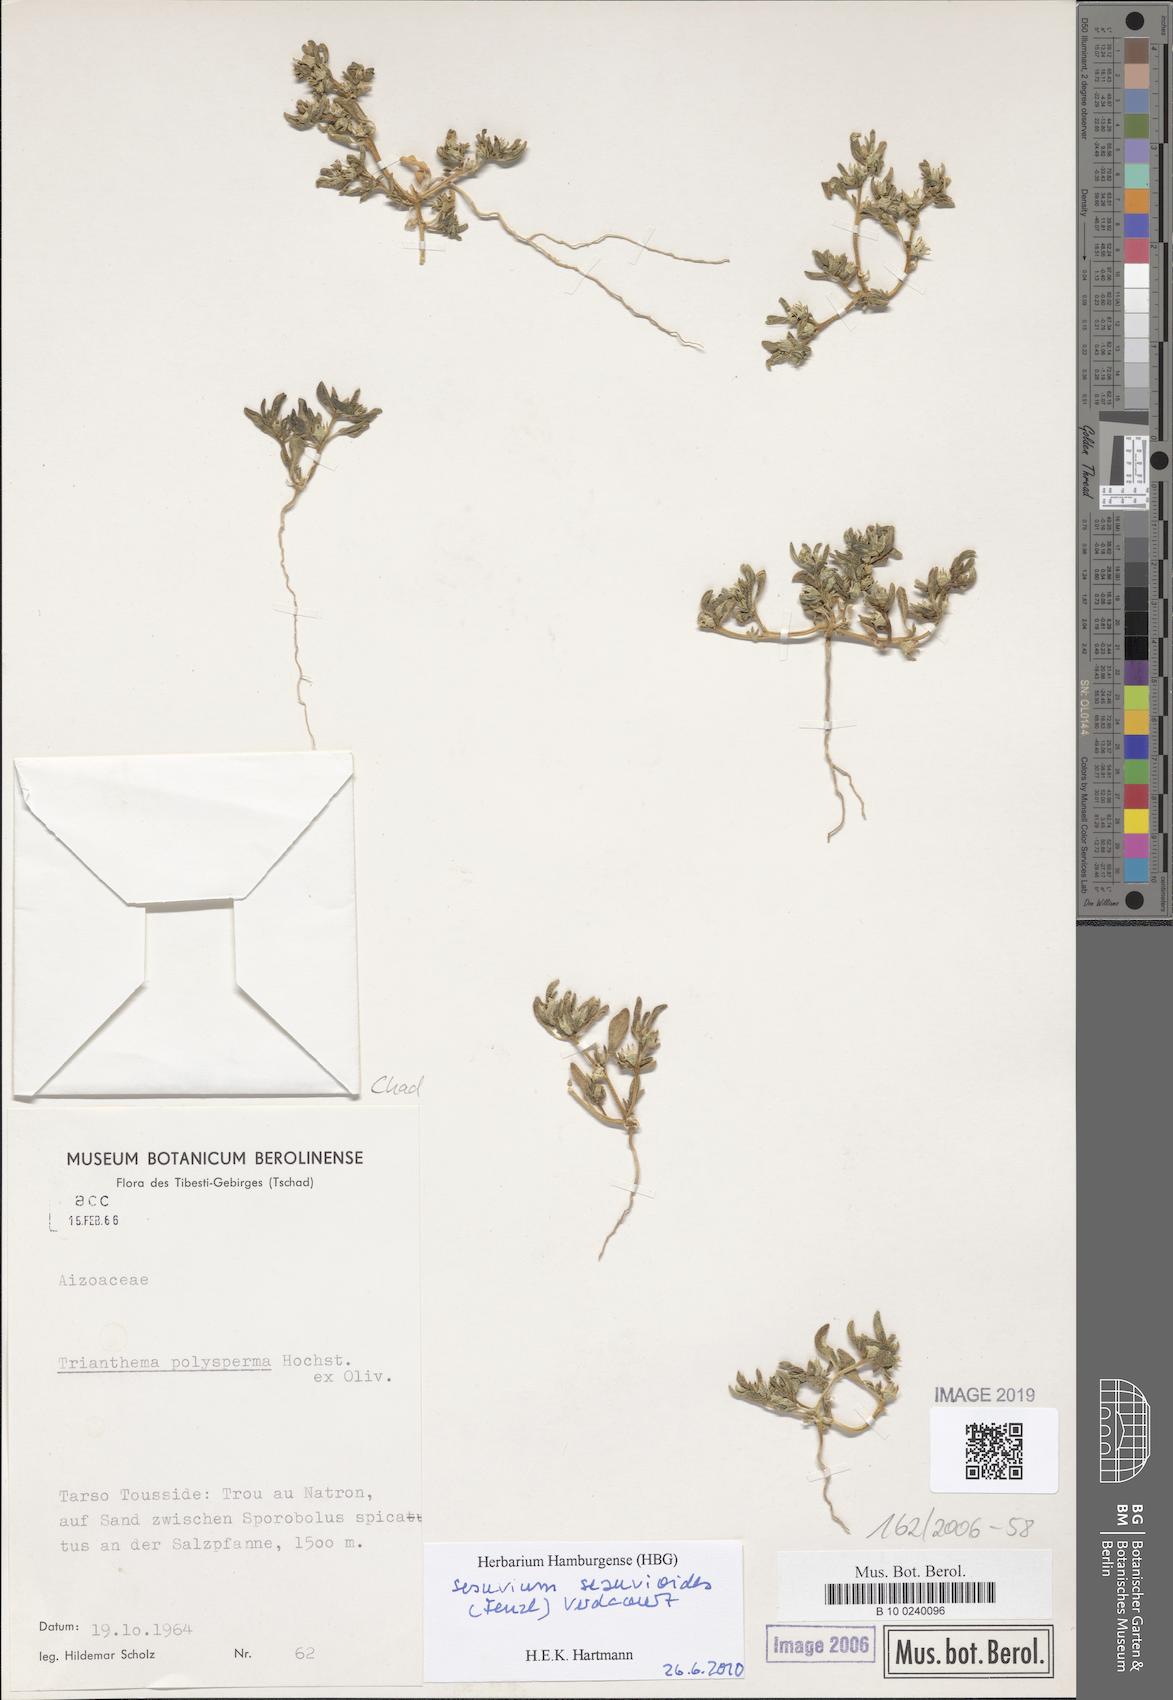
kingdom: Plantae
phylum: Tracheophyta
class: Magnoliopsida
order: Caryophyllales
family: Aizoaceae
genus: Sesuvium
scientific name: Sesuvium hydaspicum
